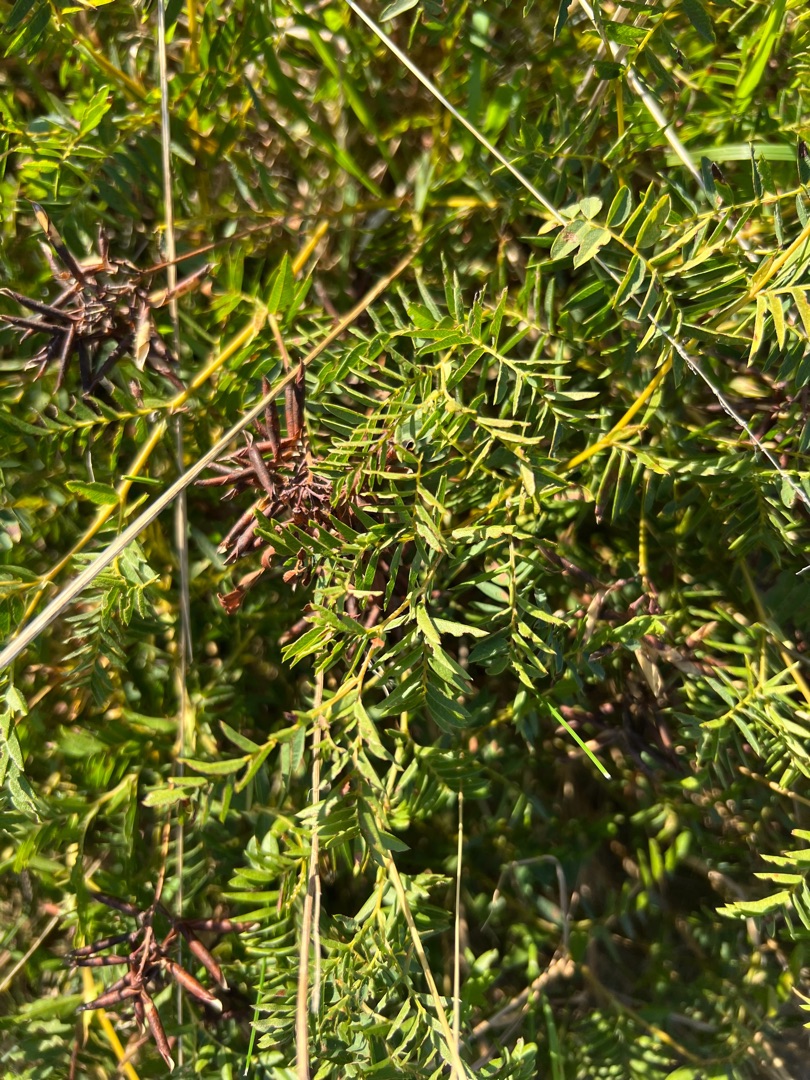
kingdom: Plantae
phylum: Tracheophyta
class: Magnoliopsida
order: Fabales
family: Fabaceae
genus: Vicia
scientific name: Vicia orobus
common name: Lyng-vikke
